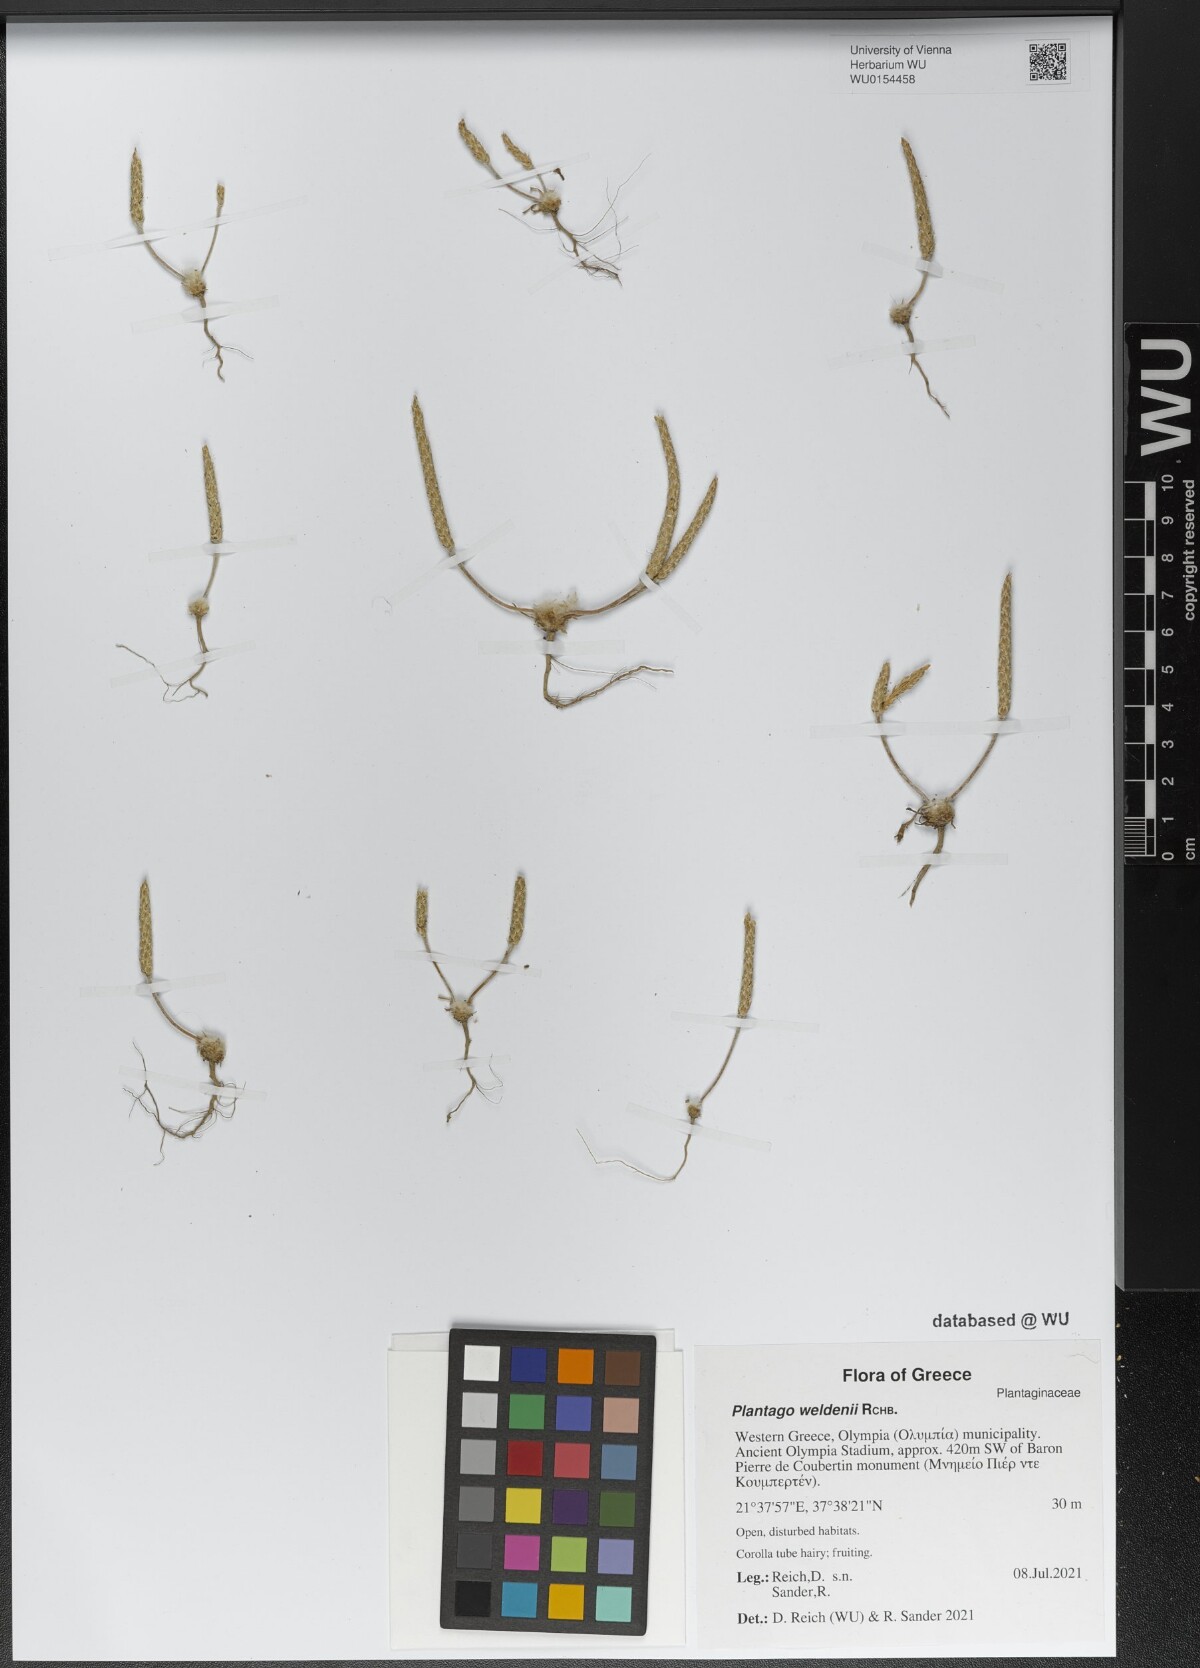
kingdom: Plantae
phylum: Tracheophyta
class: Magnoliopsida
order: Lamiales
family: Plantaginaceae
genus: Plantago
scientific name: Plantago weldenii
